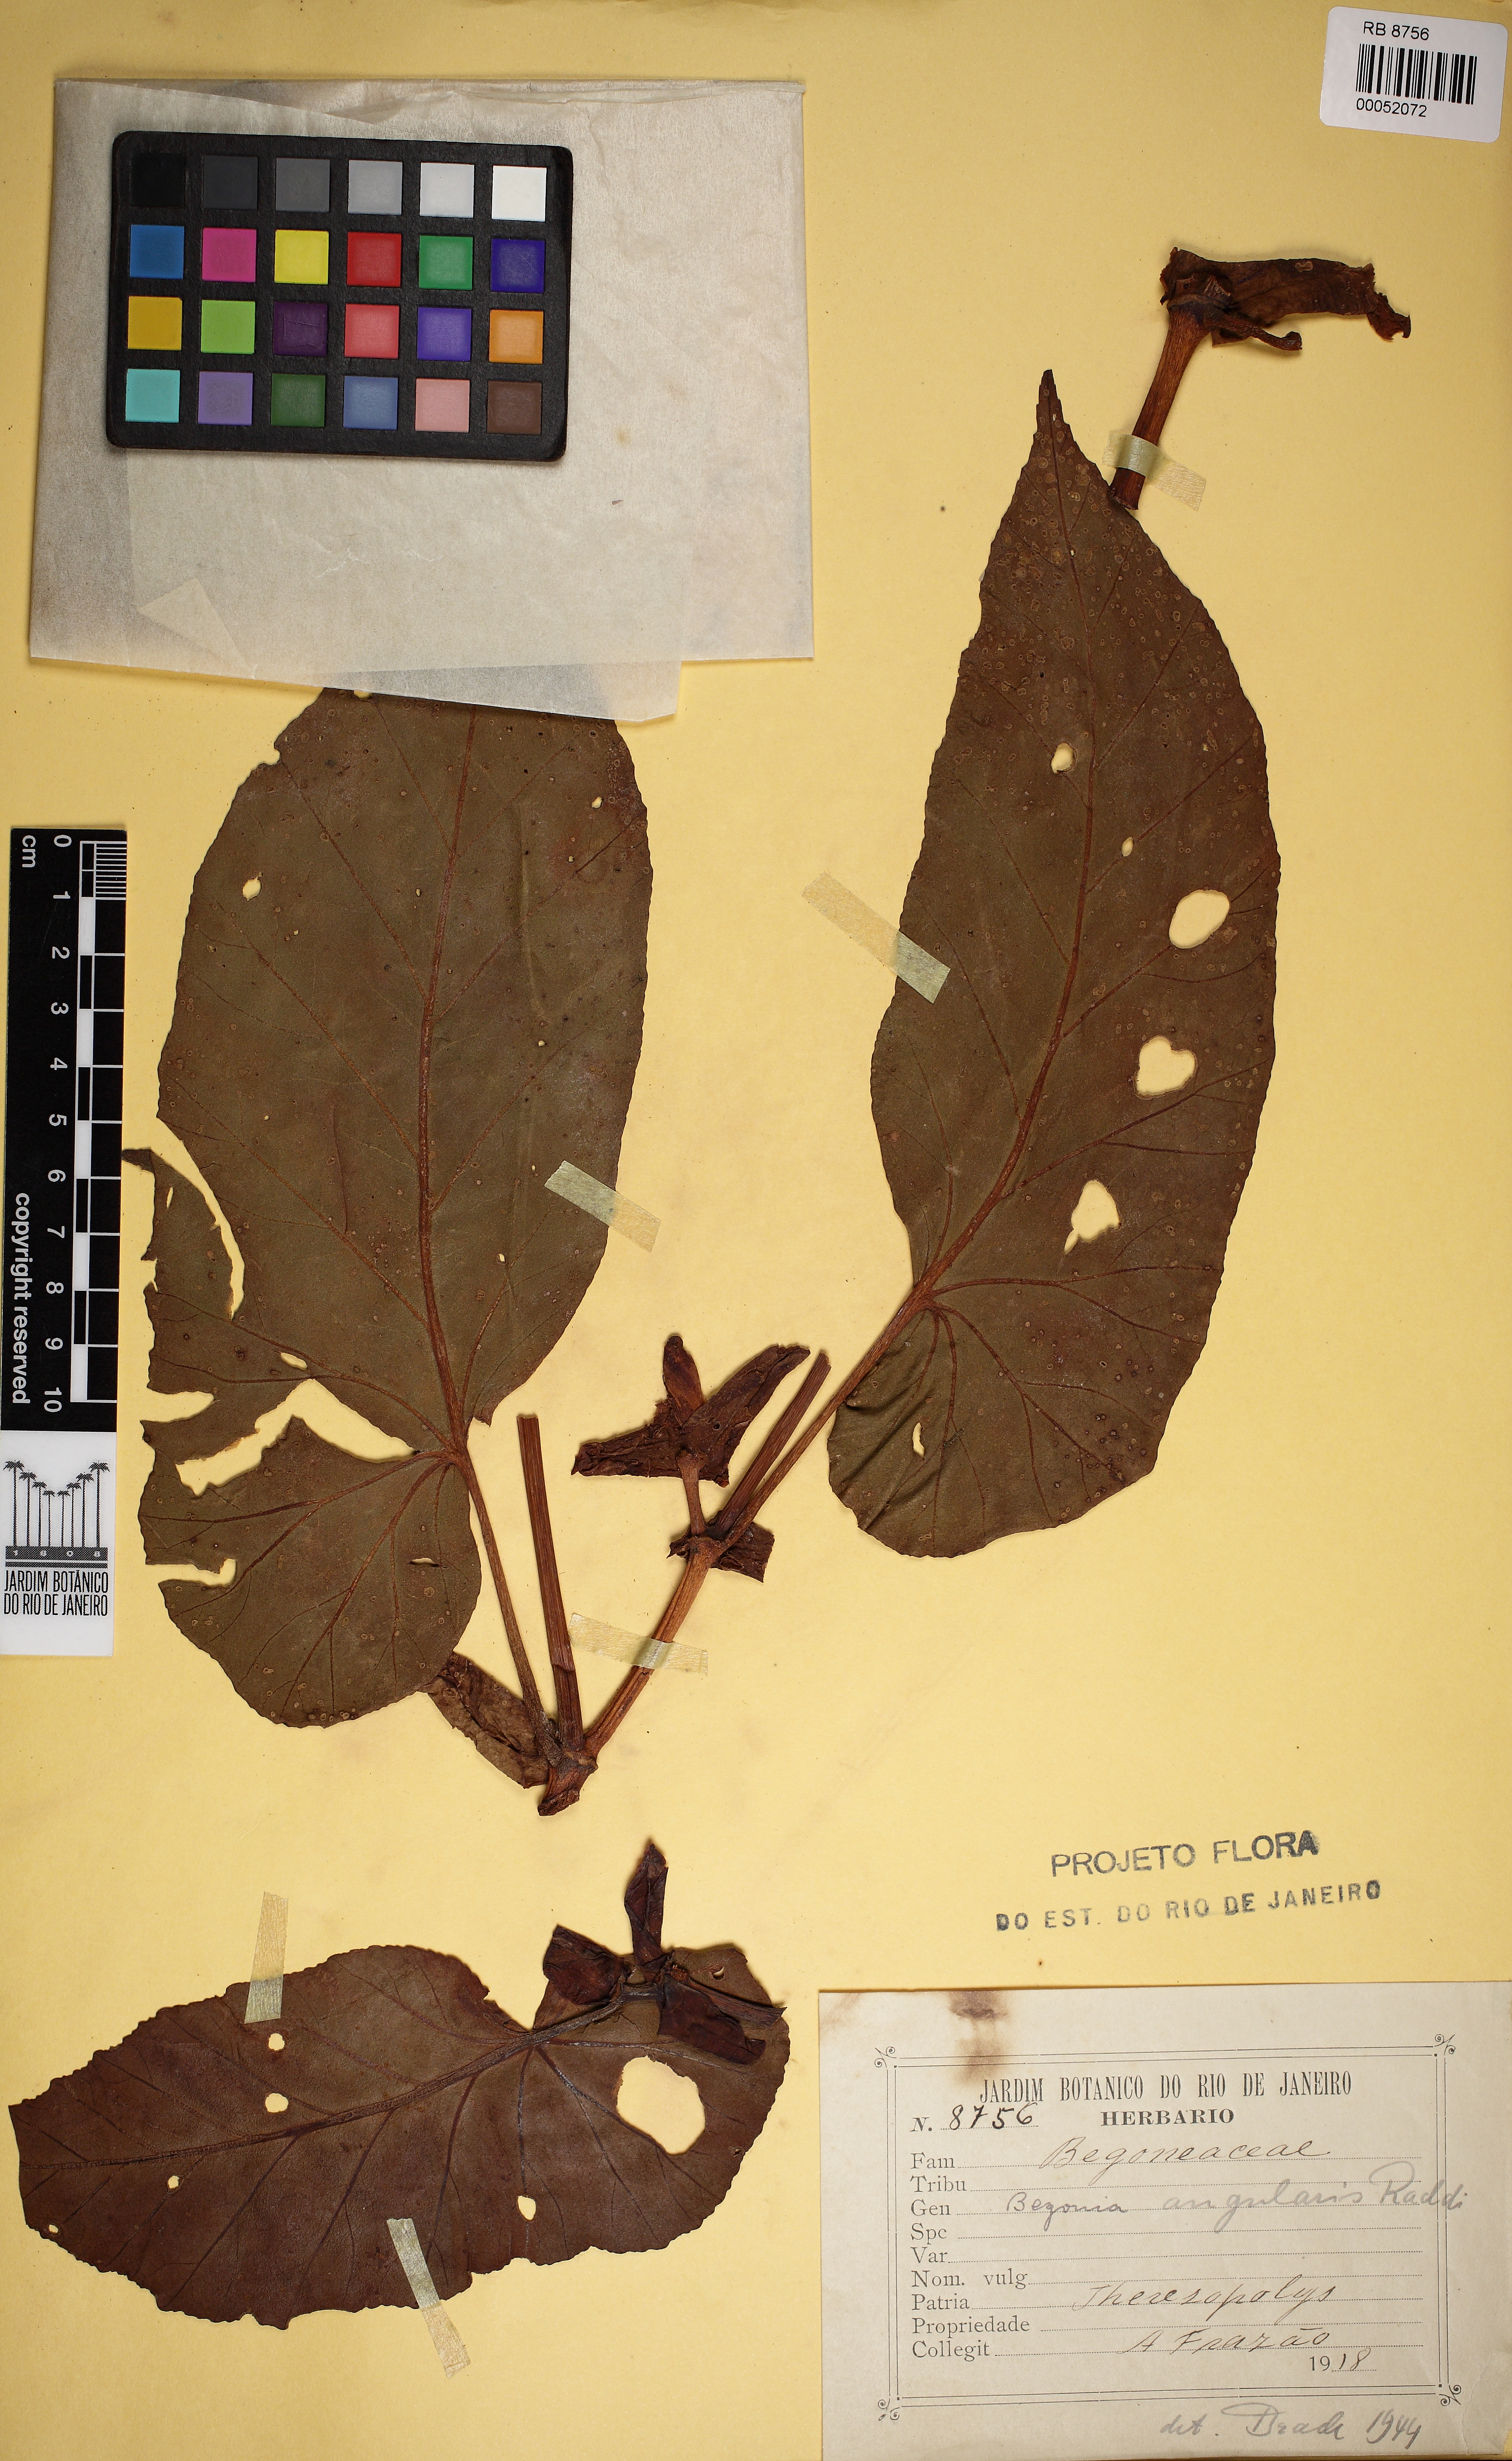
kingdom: Plantae
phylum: Tracheophyta
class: Magnoliopsida
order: Cucurbitales
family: Begoniaceae
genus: Begonia
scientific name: Begonia angularis
